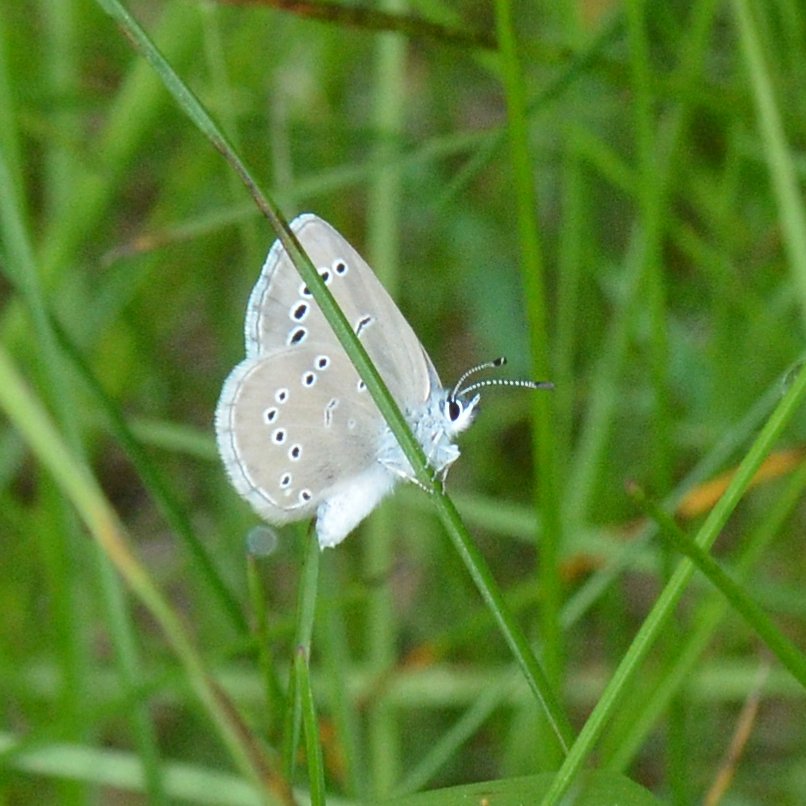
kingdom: Animalia
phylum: Arthropoda
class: Insecta
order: Lepidoptera
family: Lycaenidae
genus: Glaucopsyche
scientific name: Glaucopsyche lygdamus
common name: Silvery Blue
